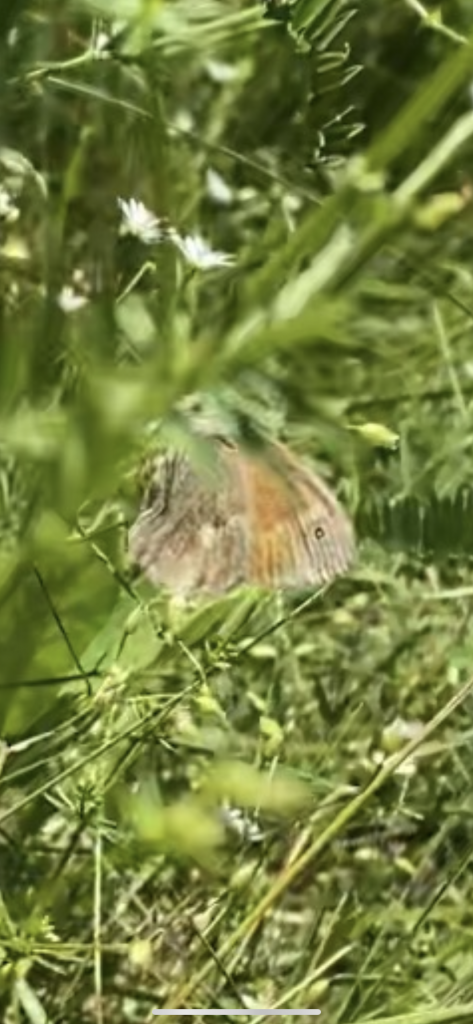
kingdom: Animalia
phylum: Arthropoda
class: Insecta
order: Lepidoptera
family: Nymphalidae
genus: Coenonympha
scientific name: Coenonympha tullia
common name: Large Heath
